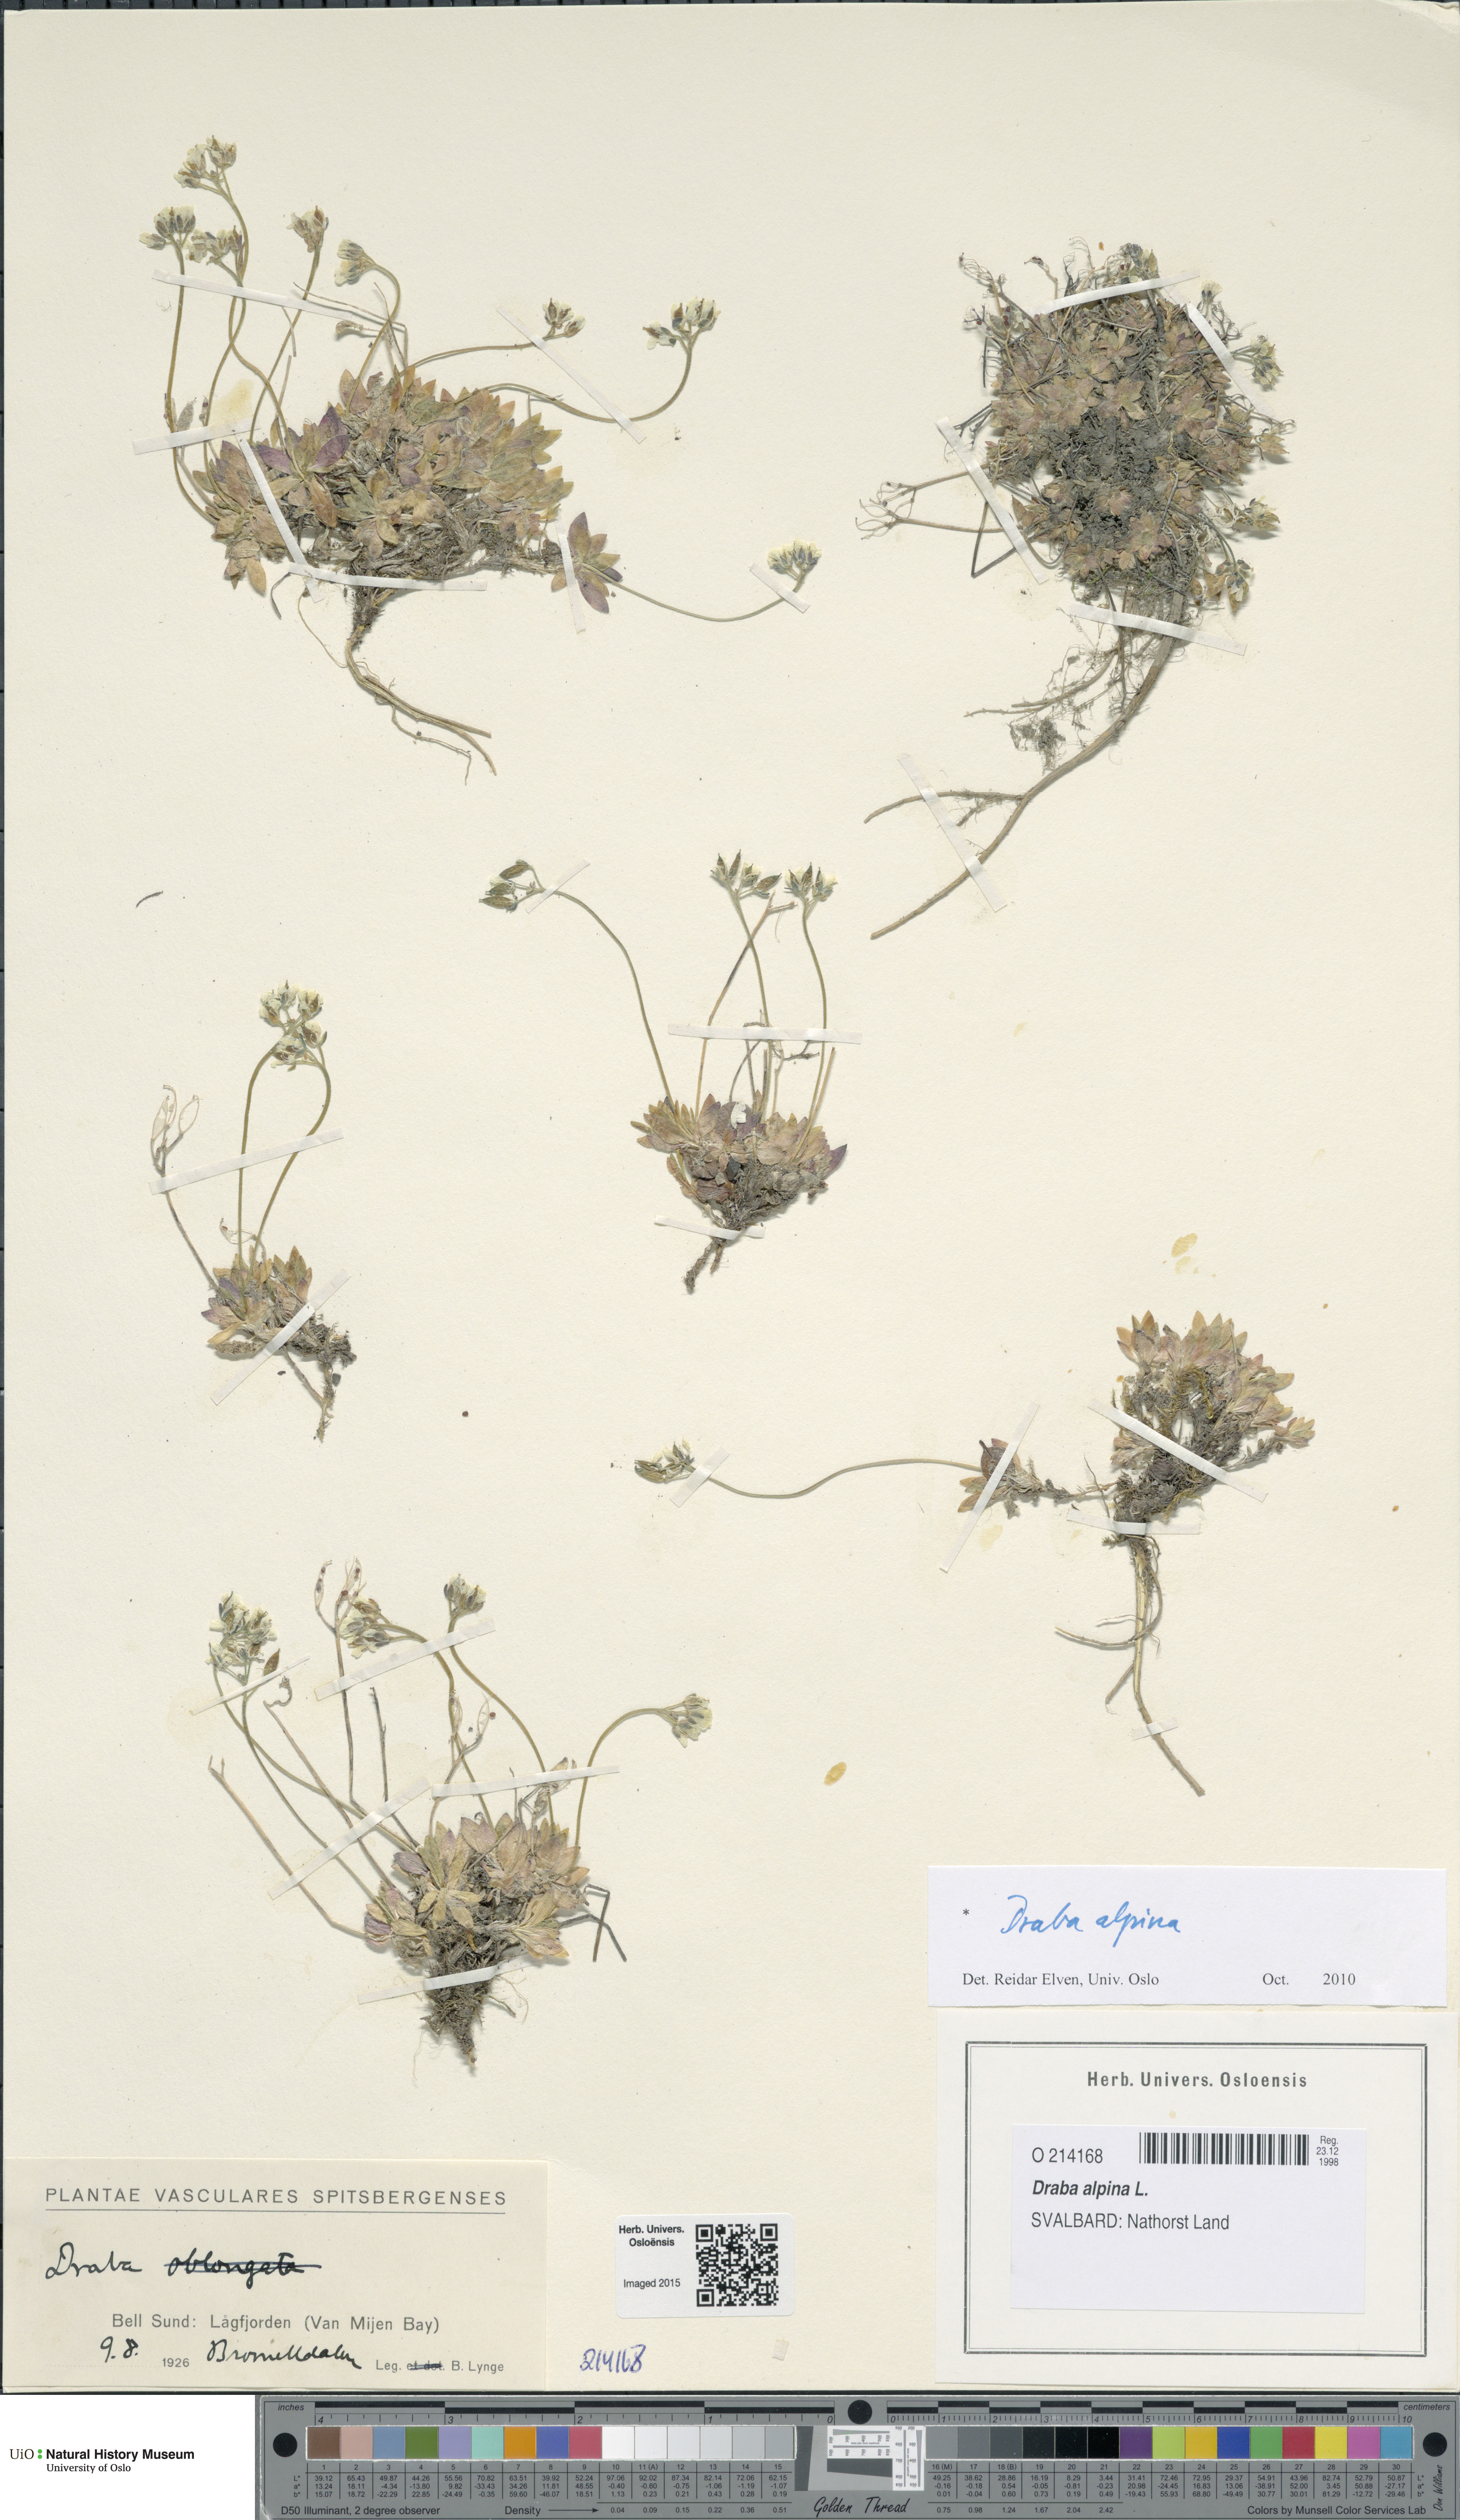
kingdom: Plantae
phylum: Tracheophyta
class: Magnoliopsida
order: Brassicales
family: Brassicaceae
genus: Draba
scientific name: Draba alpina
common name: Alpine draba
